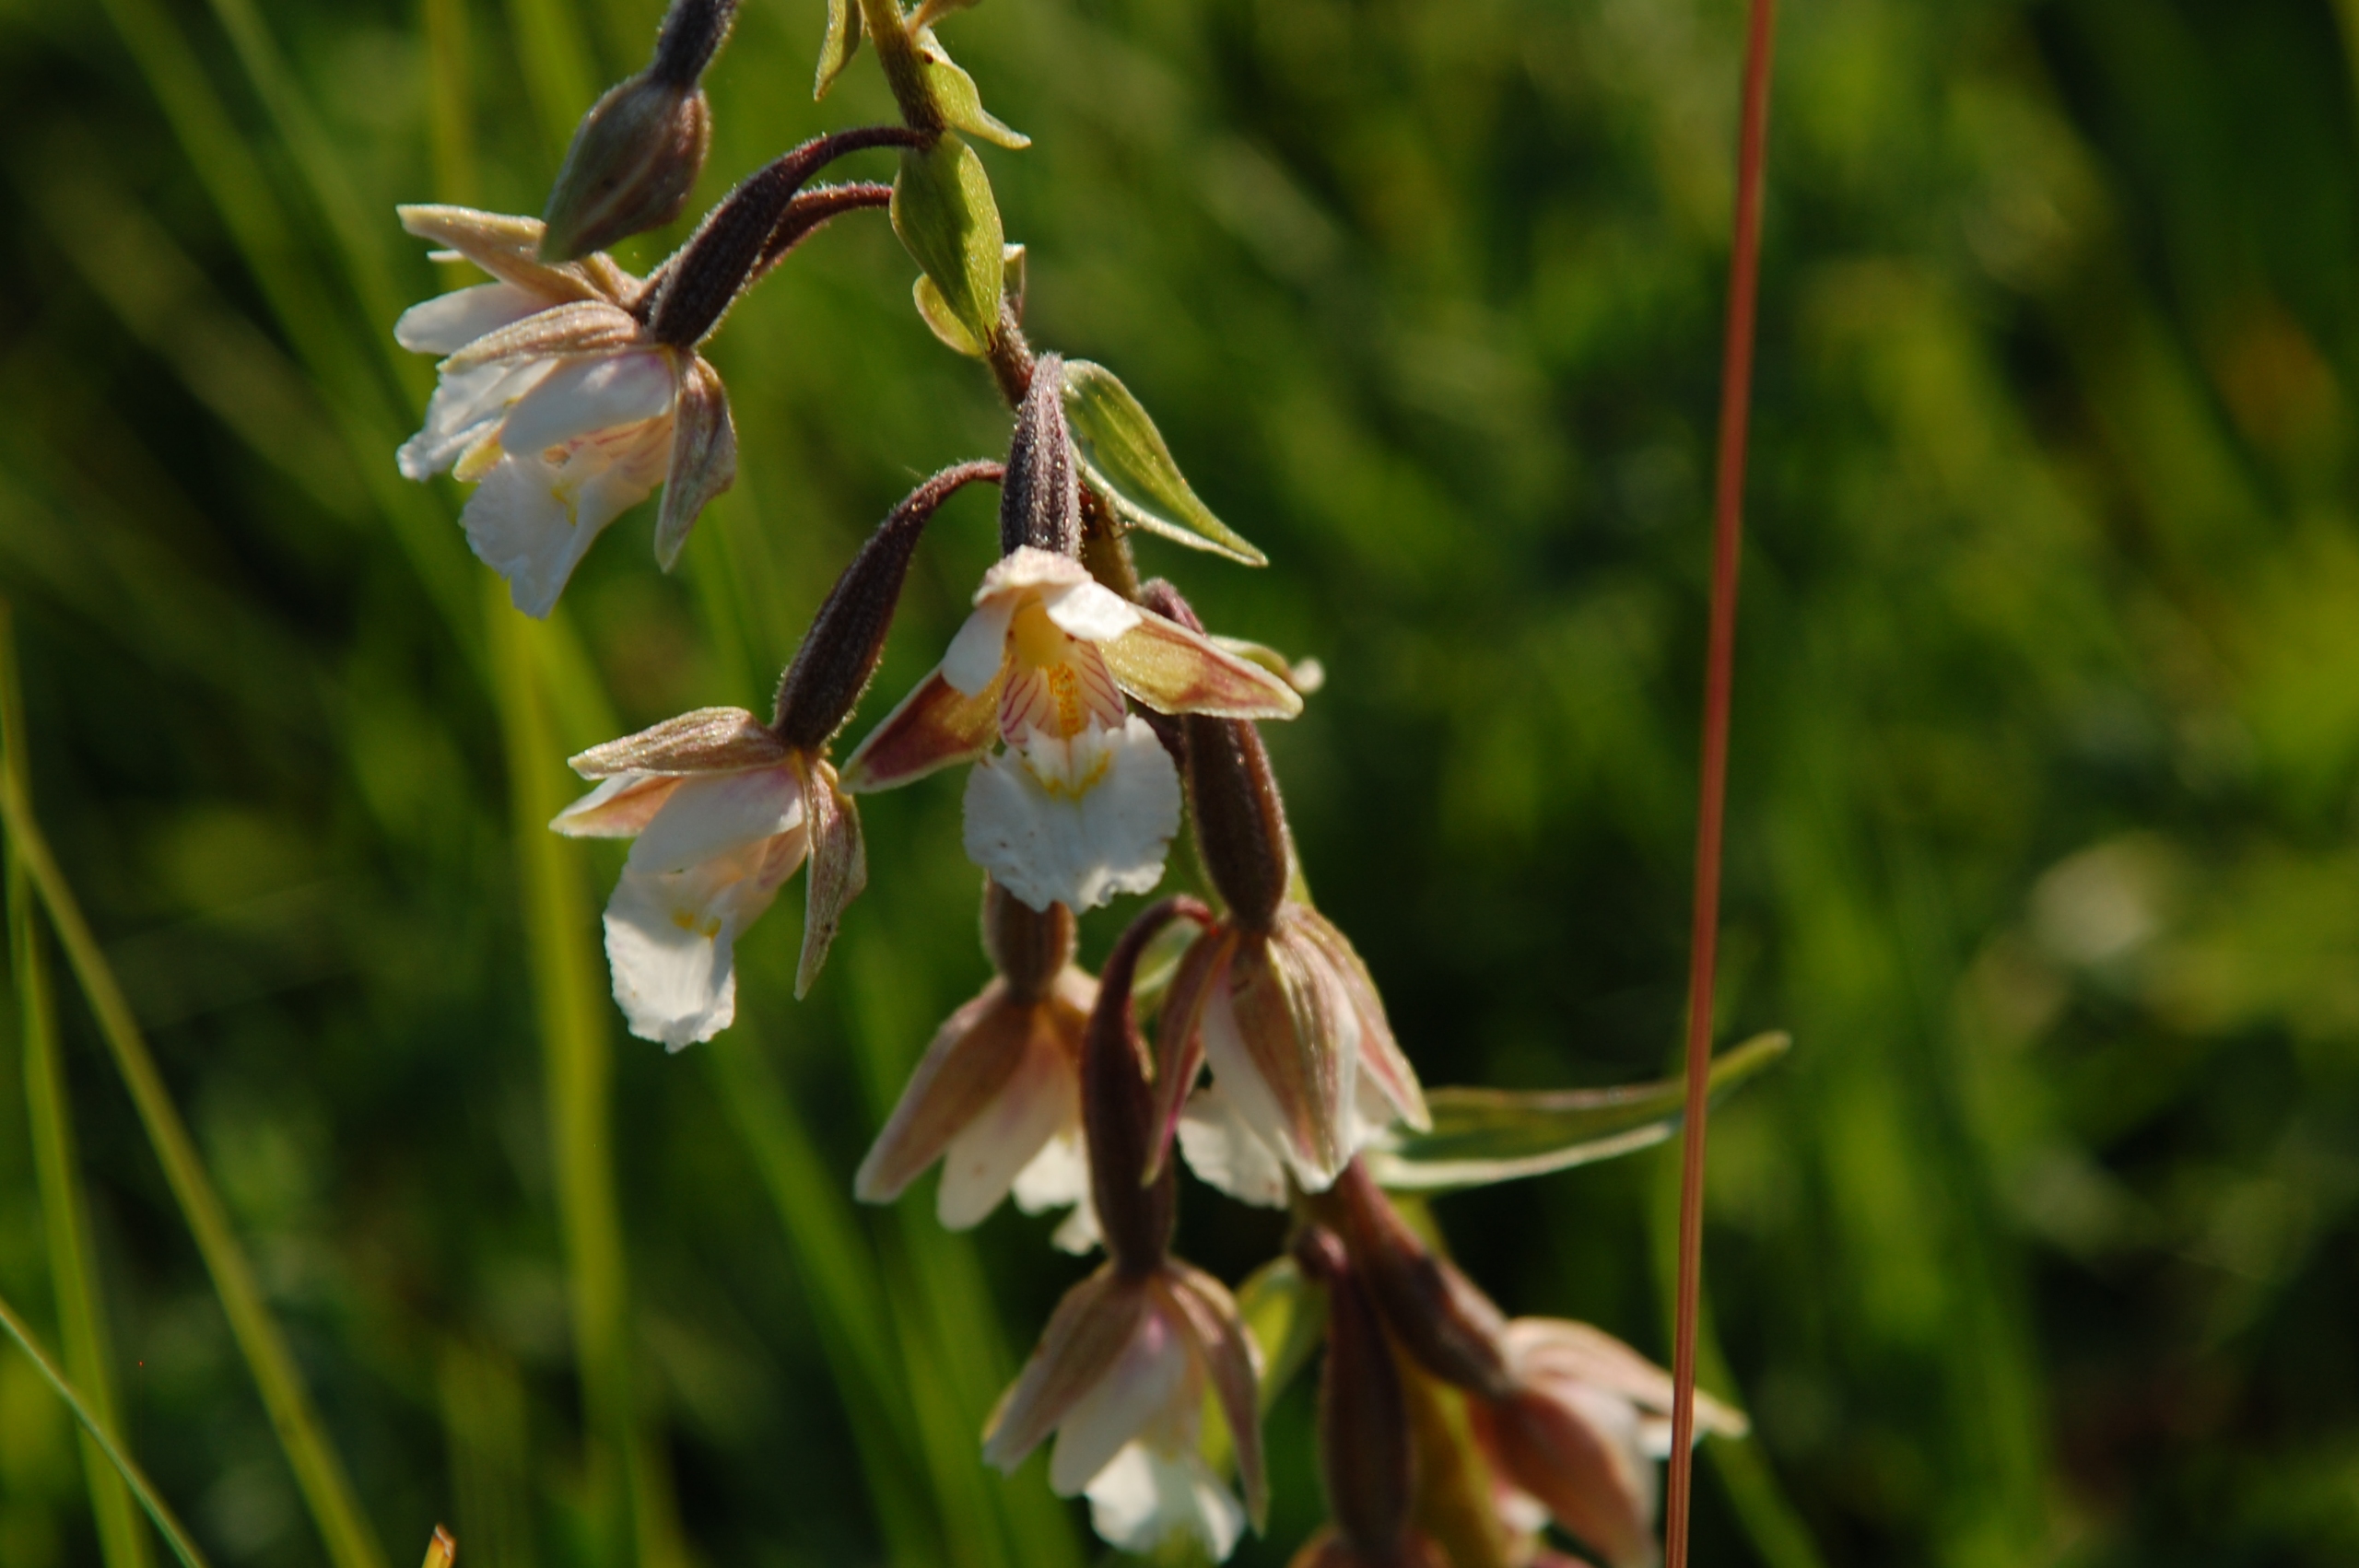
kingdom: Plantae
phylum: Tracheophyta
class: Liliopsida
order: Asparagales
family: Orchidaceae
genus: Epipactis
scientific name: Epipactis palustris
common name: Sump-hullæbe
